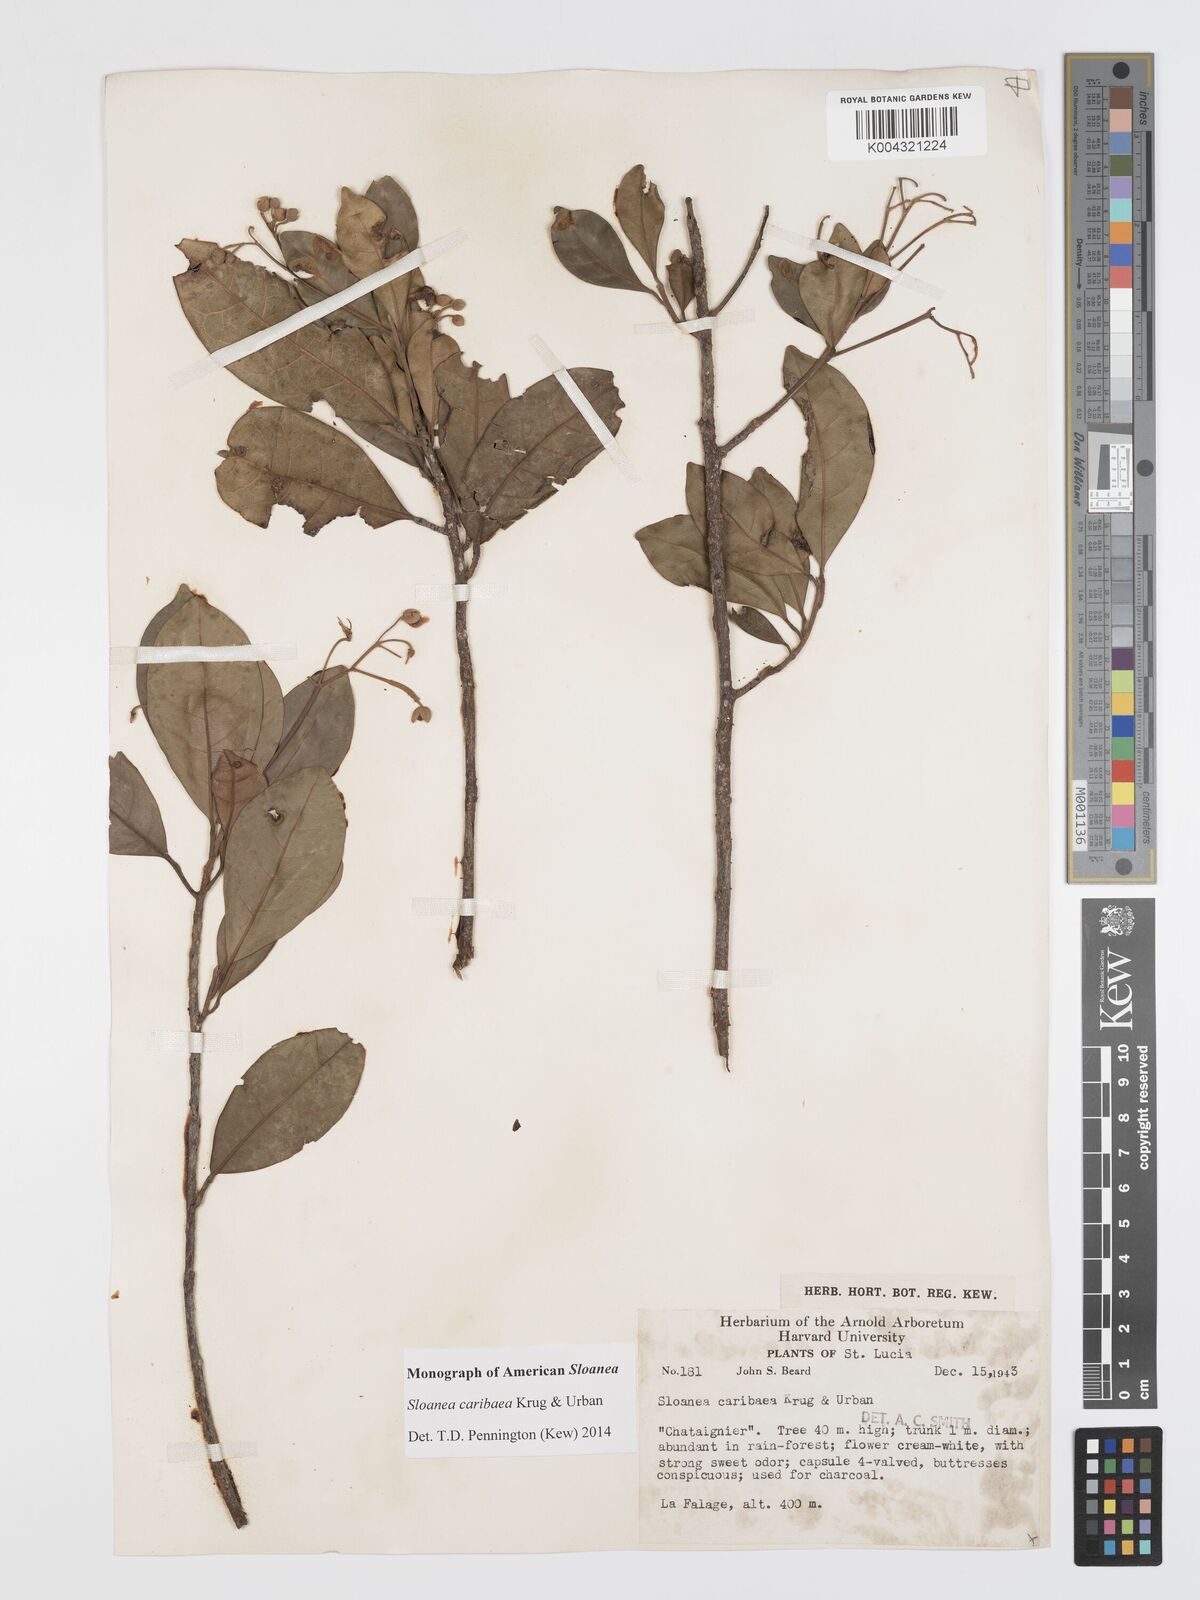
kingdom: Plantae
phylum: Tracheophyta
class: Magnoliopsida
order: Oxalidales
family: Elaeocarpaceae
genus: Sloanea
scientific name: Sloanea caribaea
